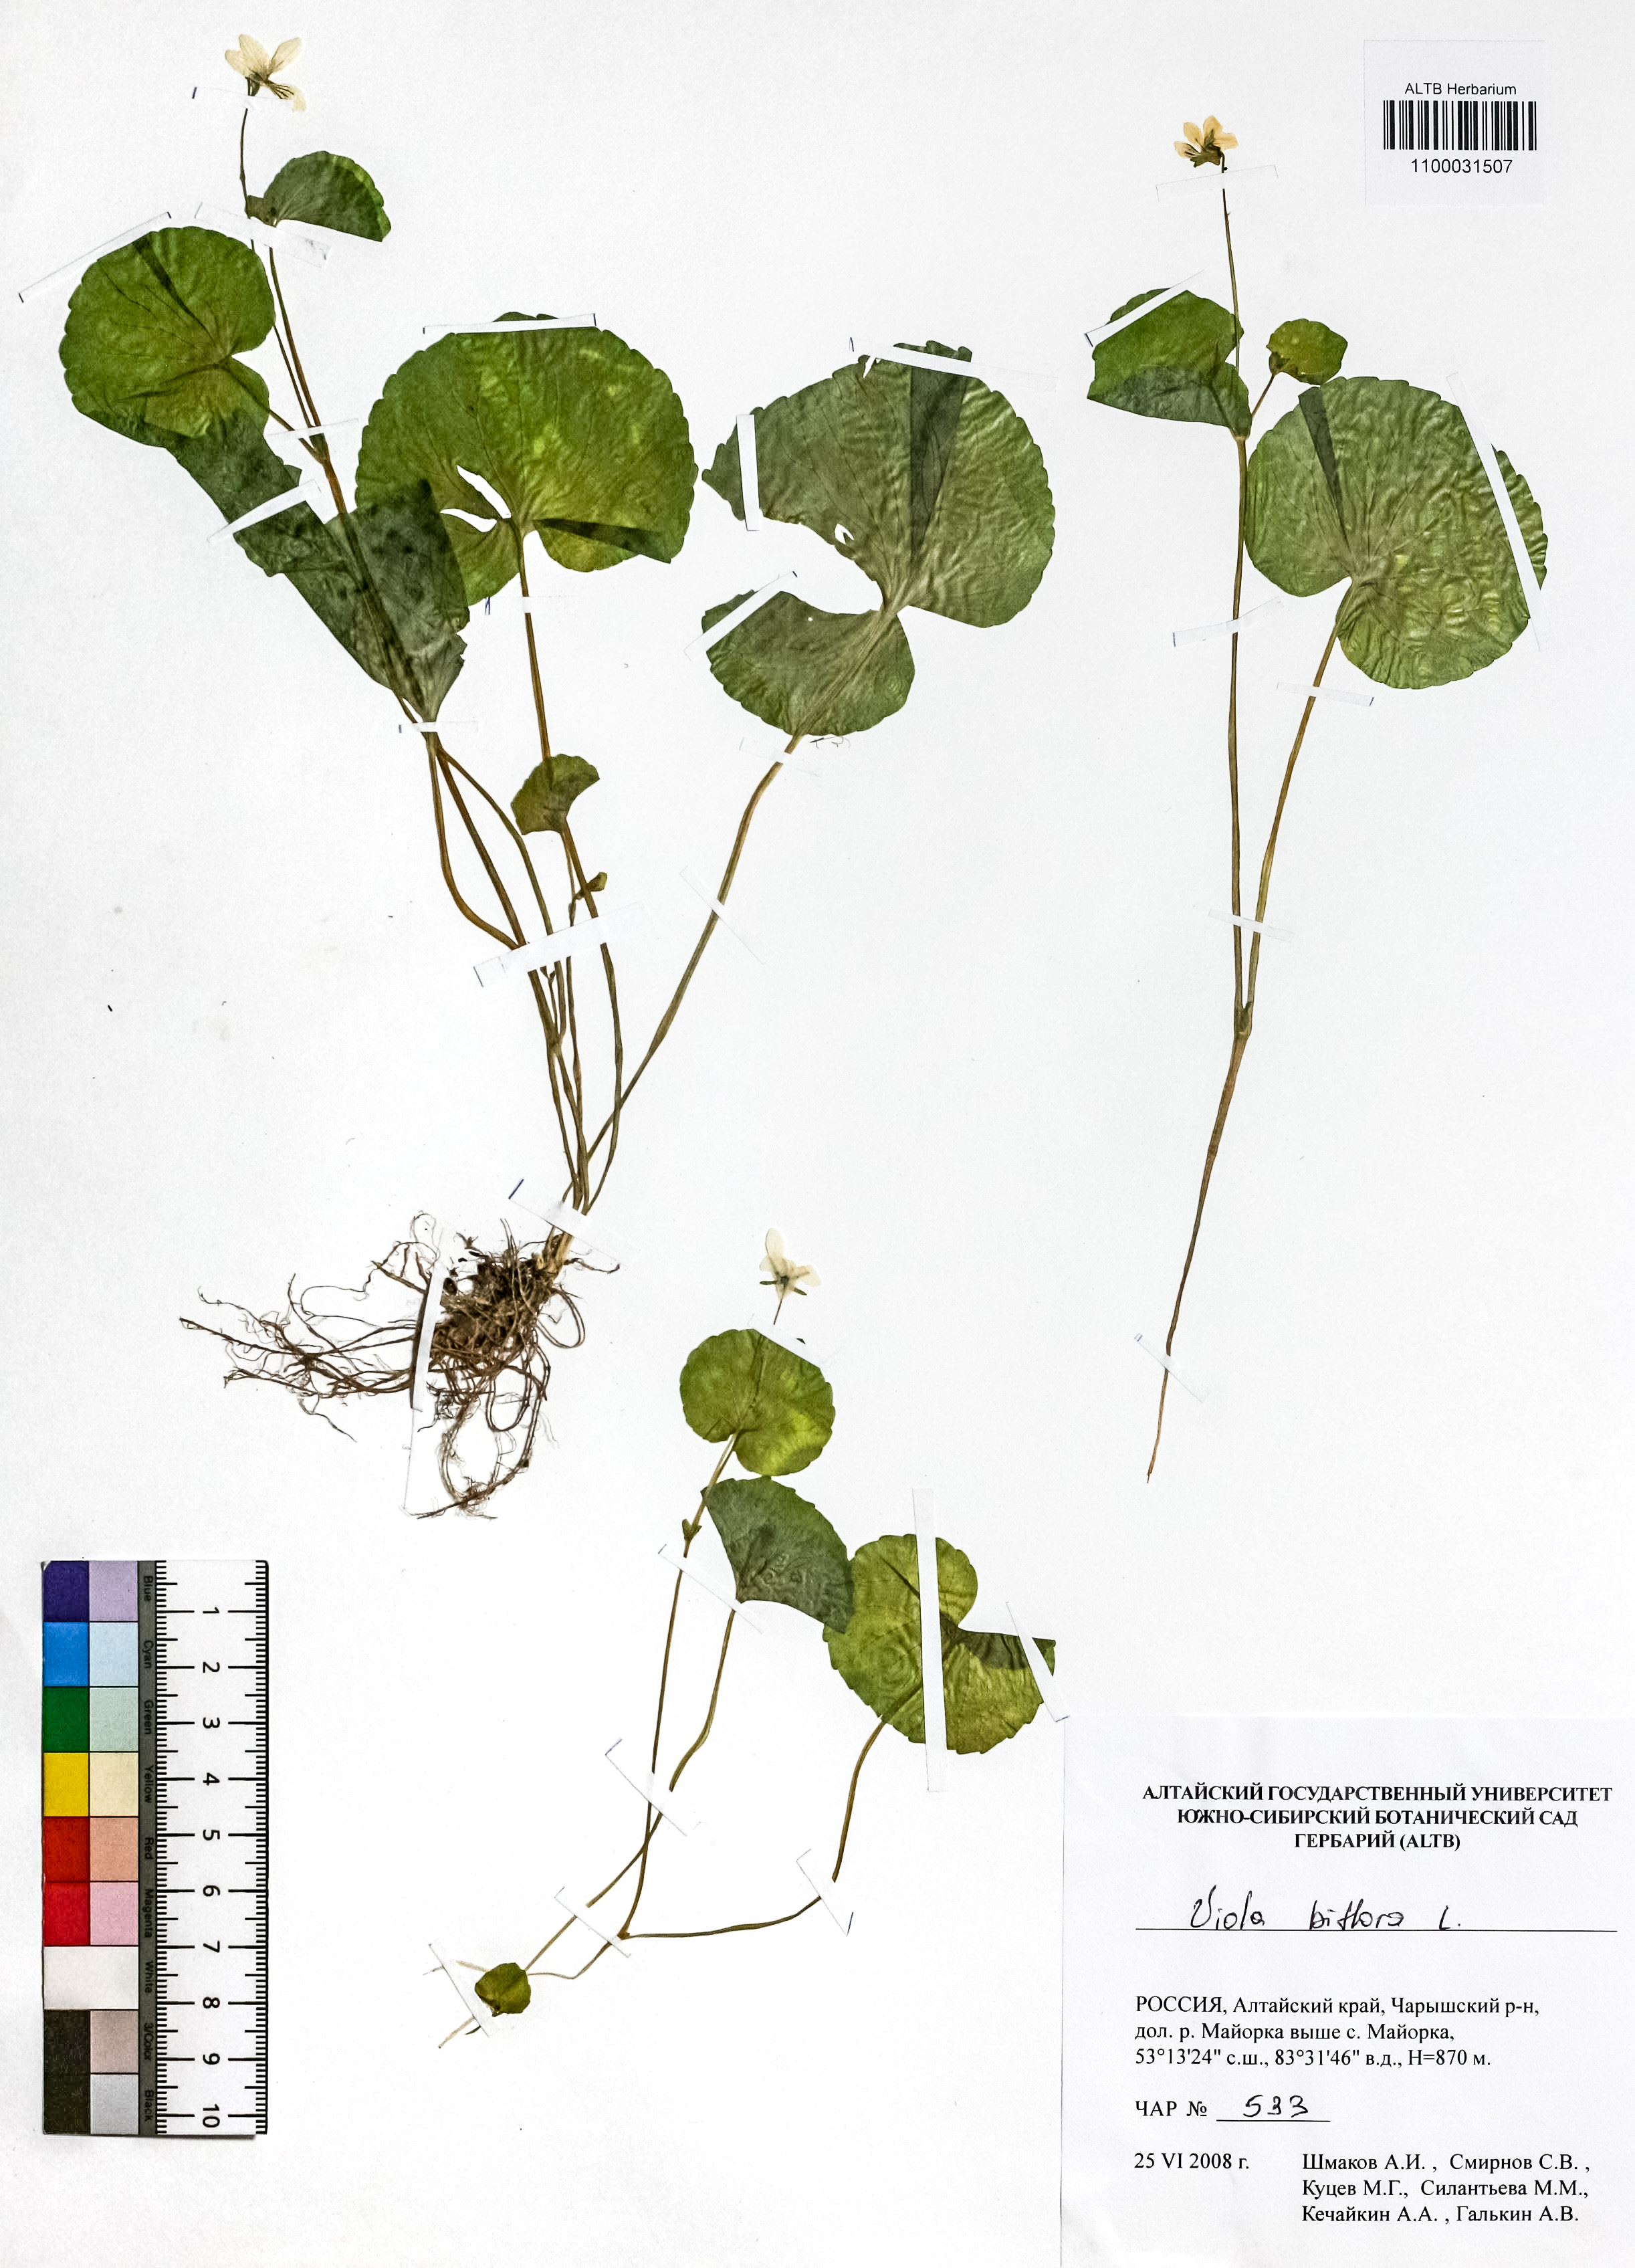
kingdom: Plantae
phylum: Tracheophyta
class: Magnoliopsida
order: Malpighiales
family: Violaceae
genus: Viola
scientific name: Viola biflora
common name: Alpine yellow violet
